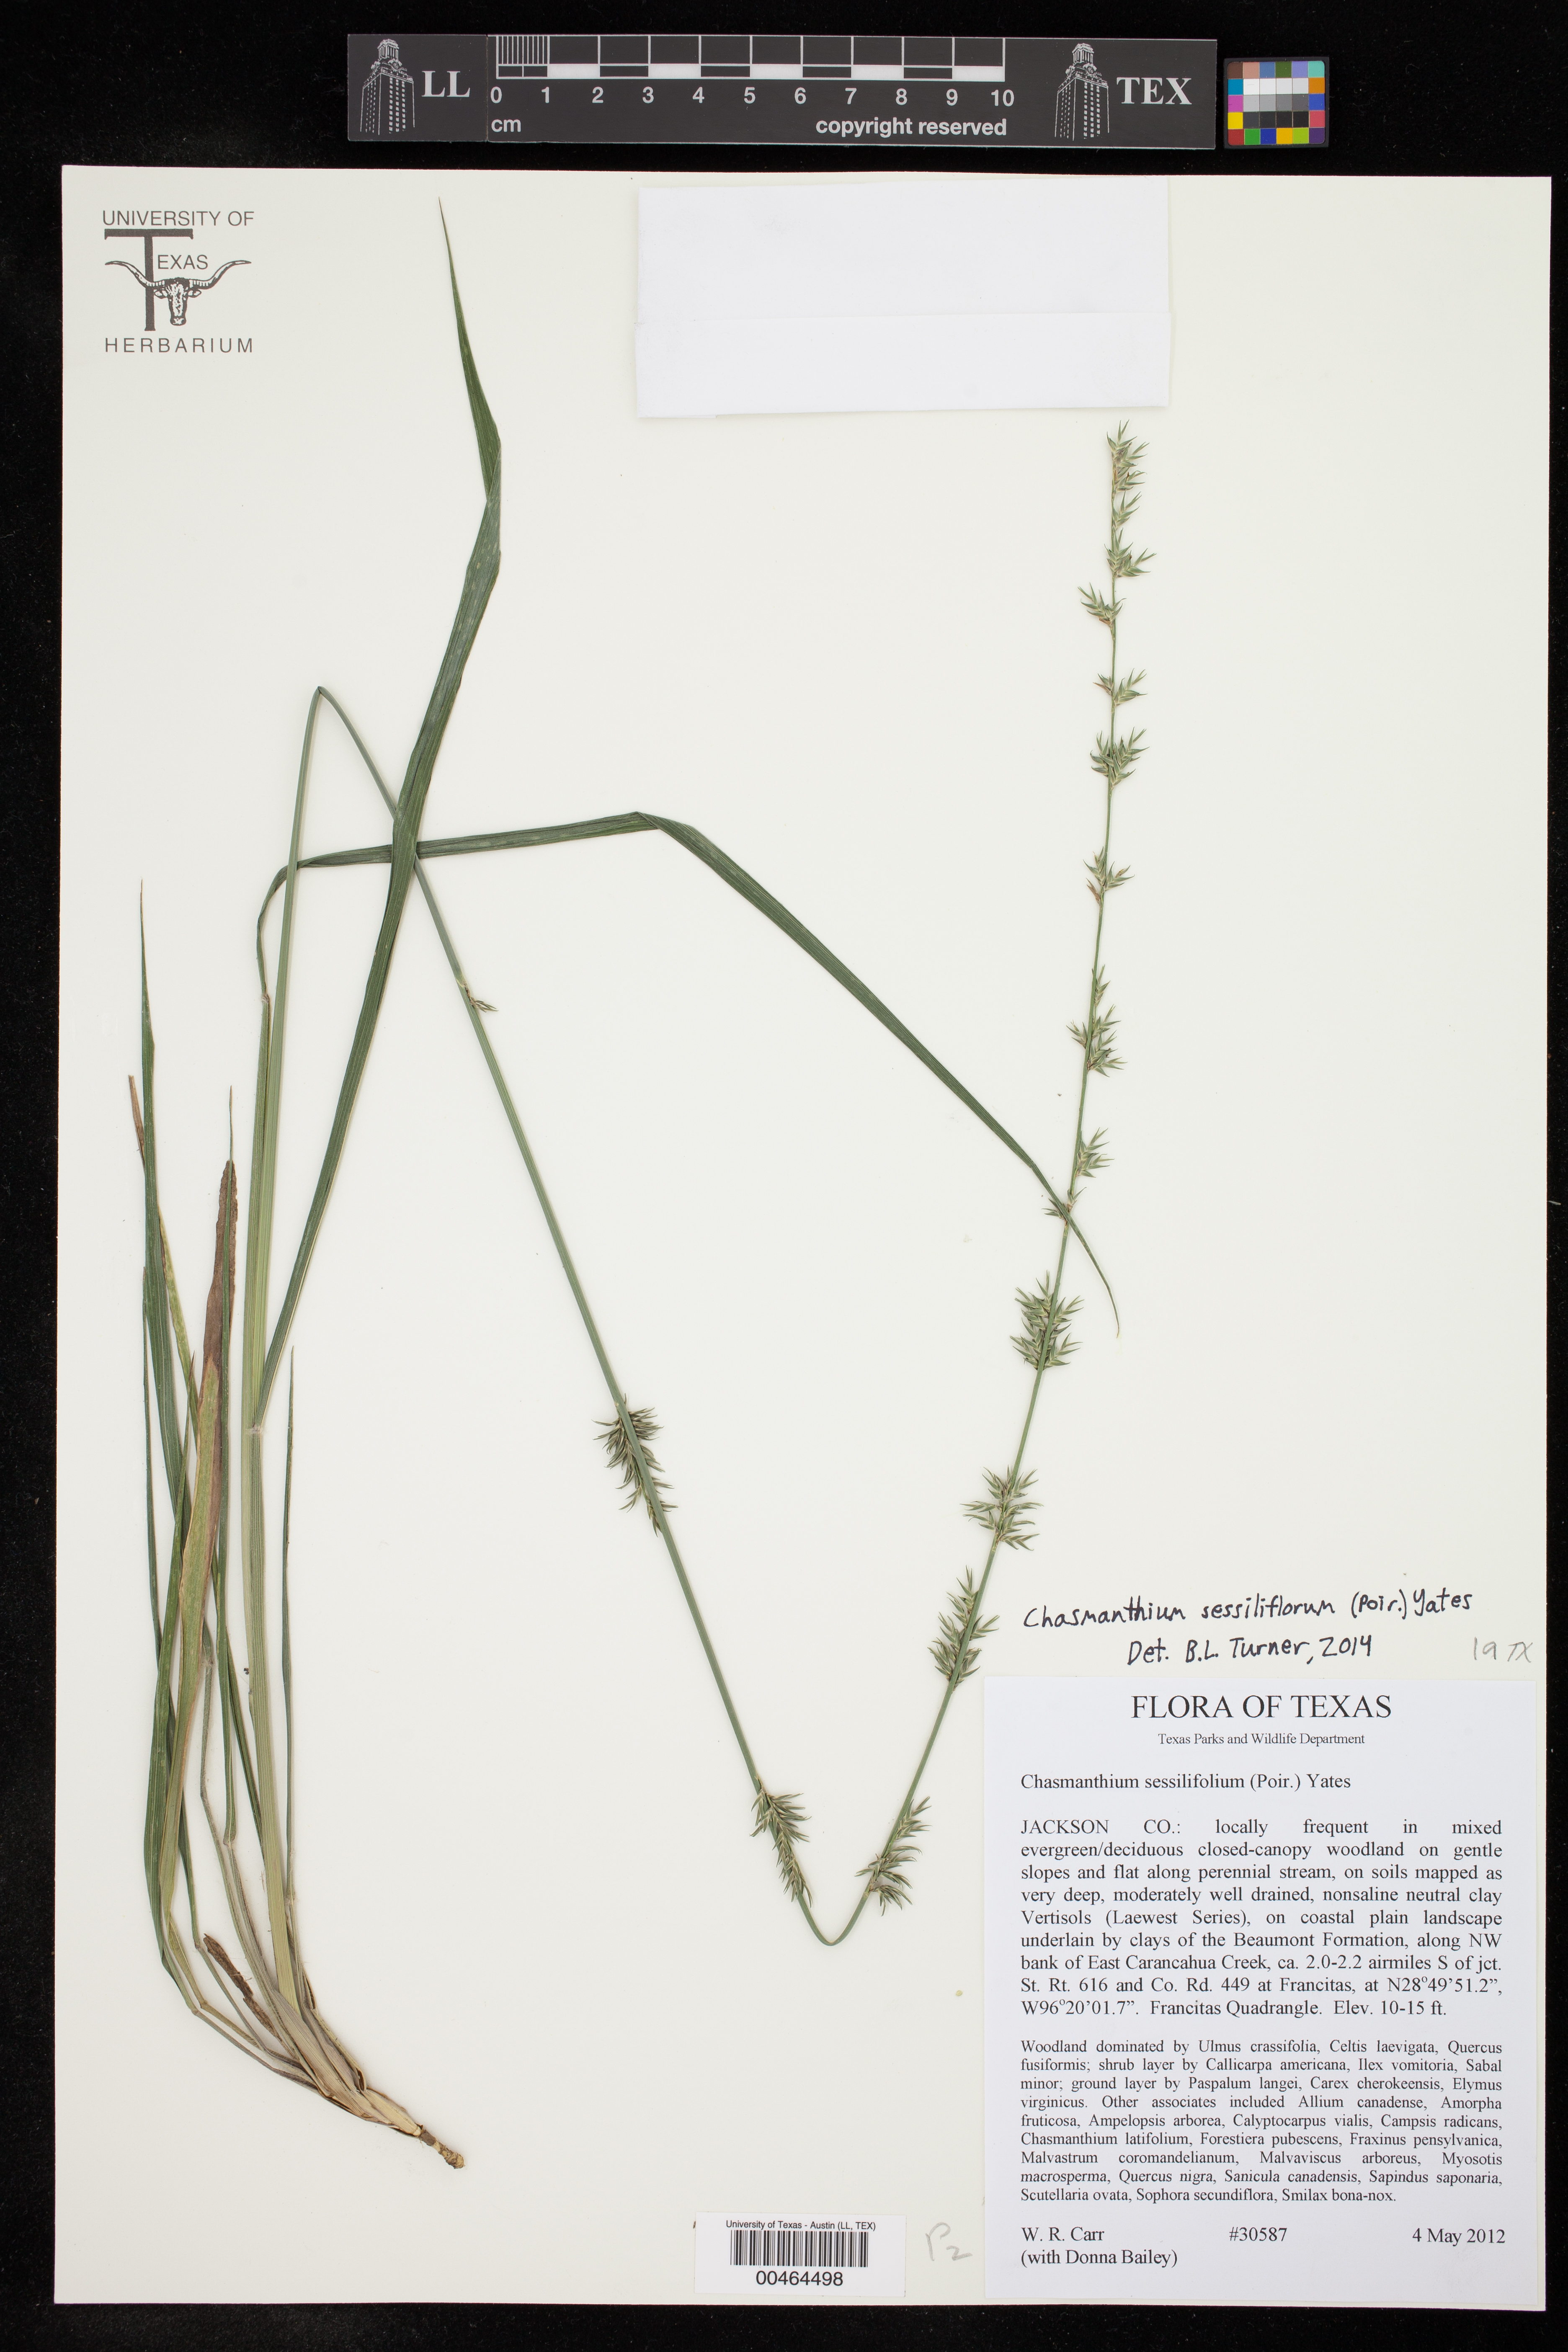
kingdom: Plantae
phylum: Tracheophyta
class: Liliopsida
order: Poales
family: Poaceae
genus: Chasmanthium
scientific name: Chasmanthium laxum
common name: Slender chasmanthium
